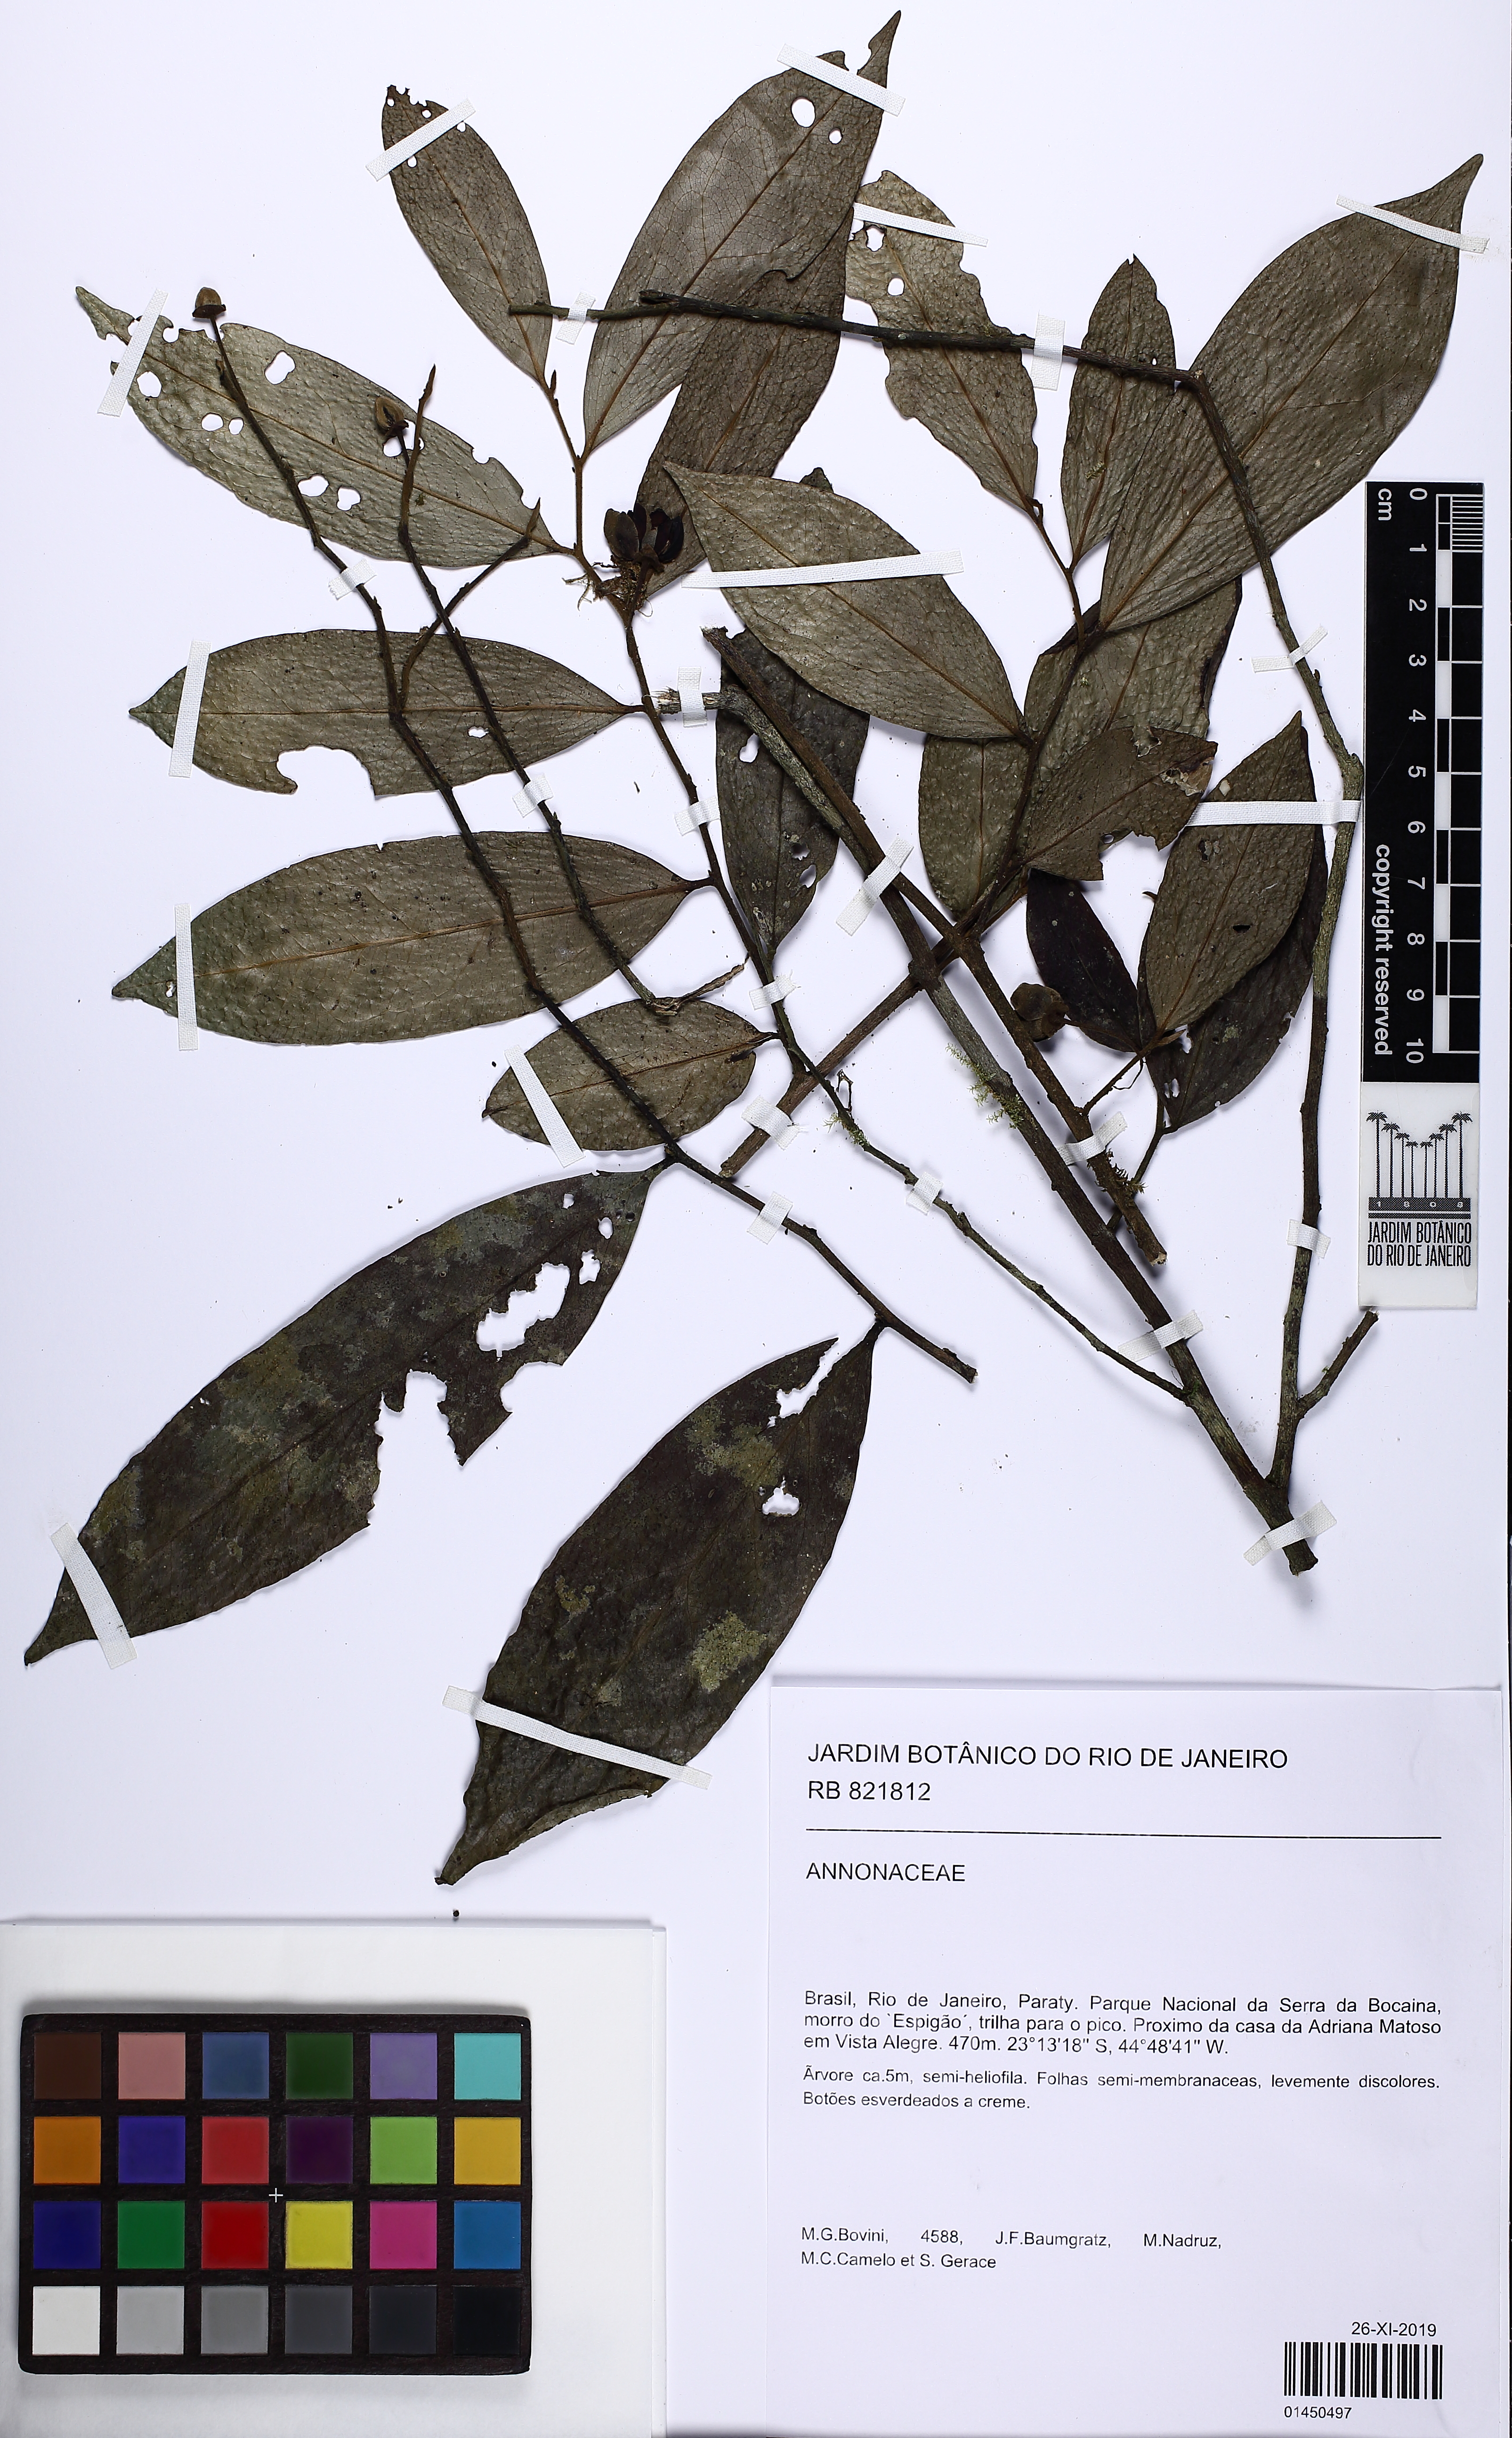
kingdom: Plantae
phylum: Tracheophyta
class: Magnoliopsida
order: Magnoliales
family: Annonaceae
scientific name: Annonaceae
